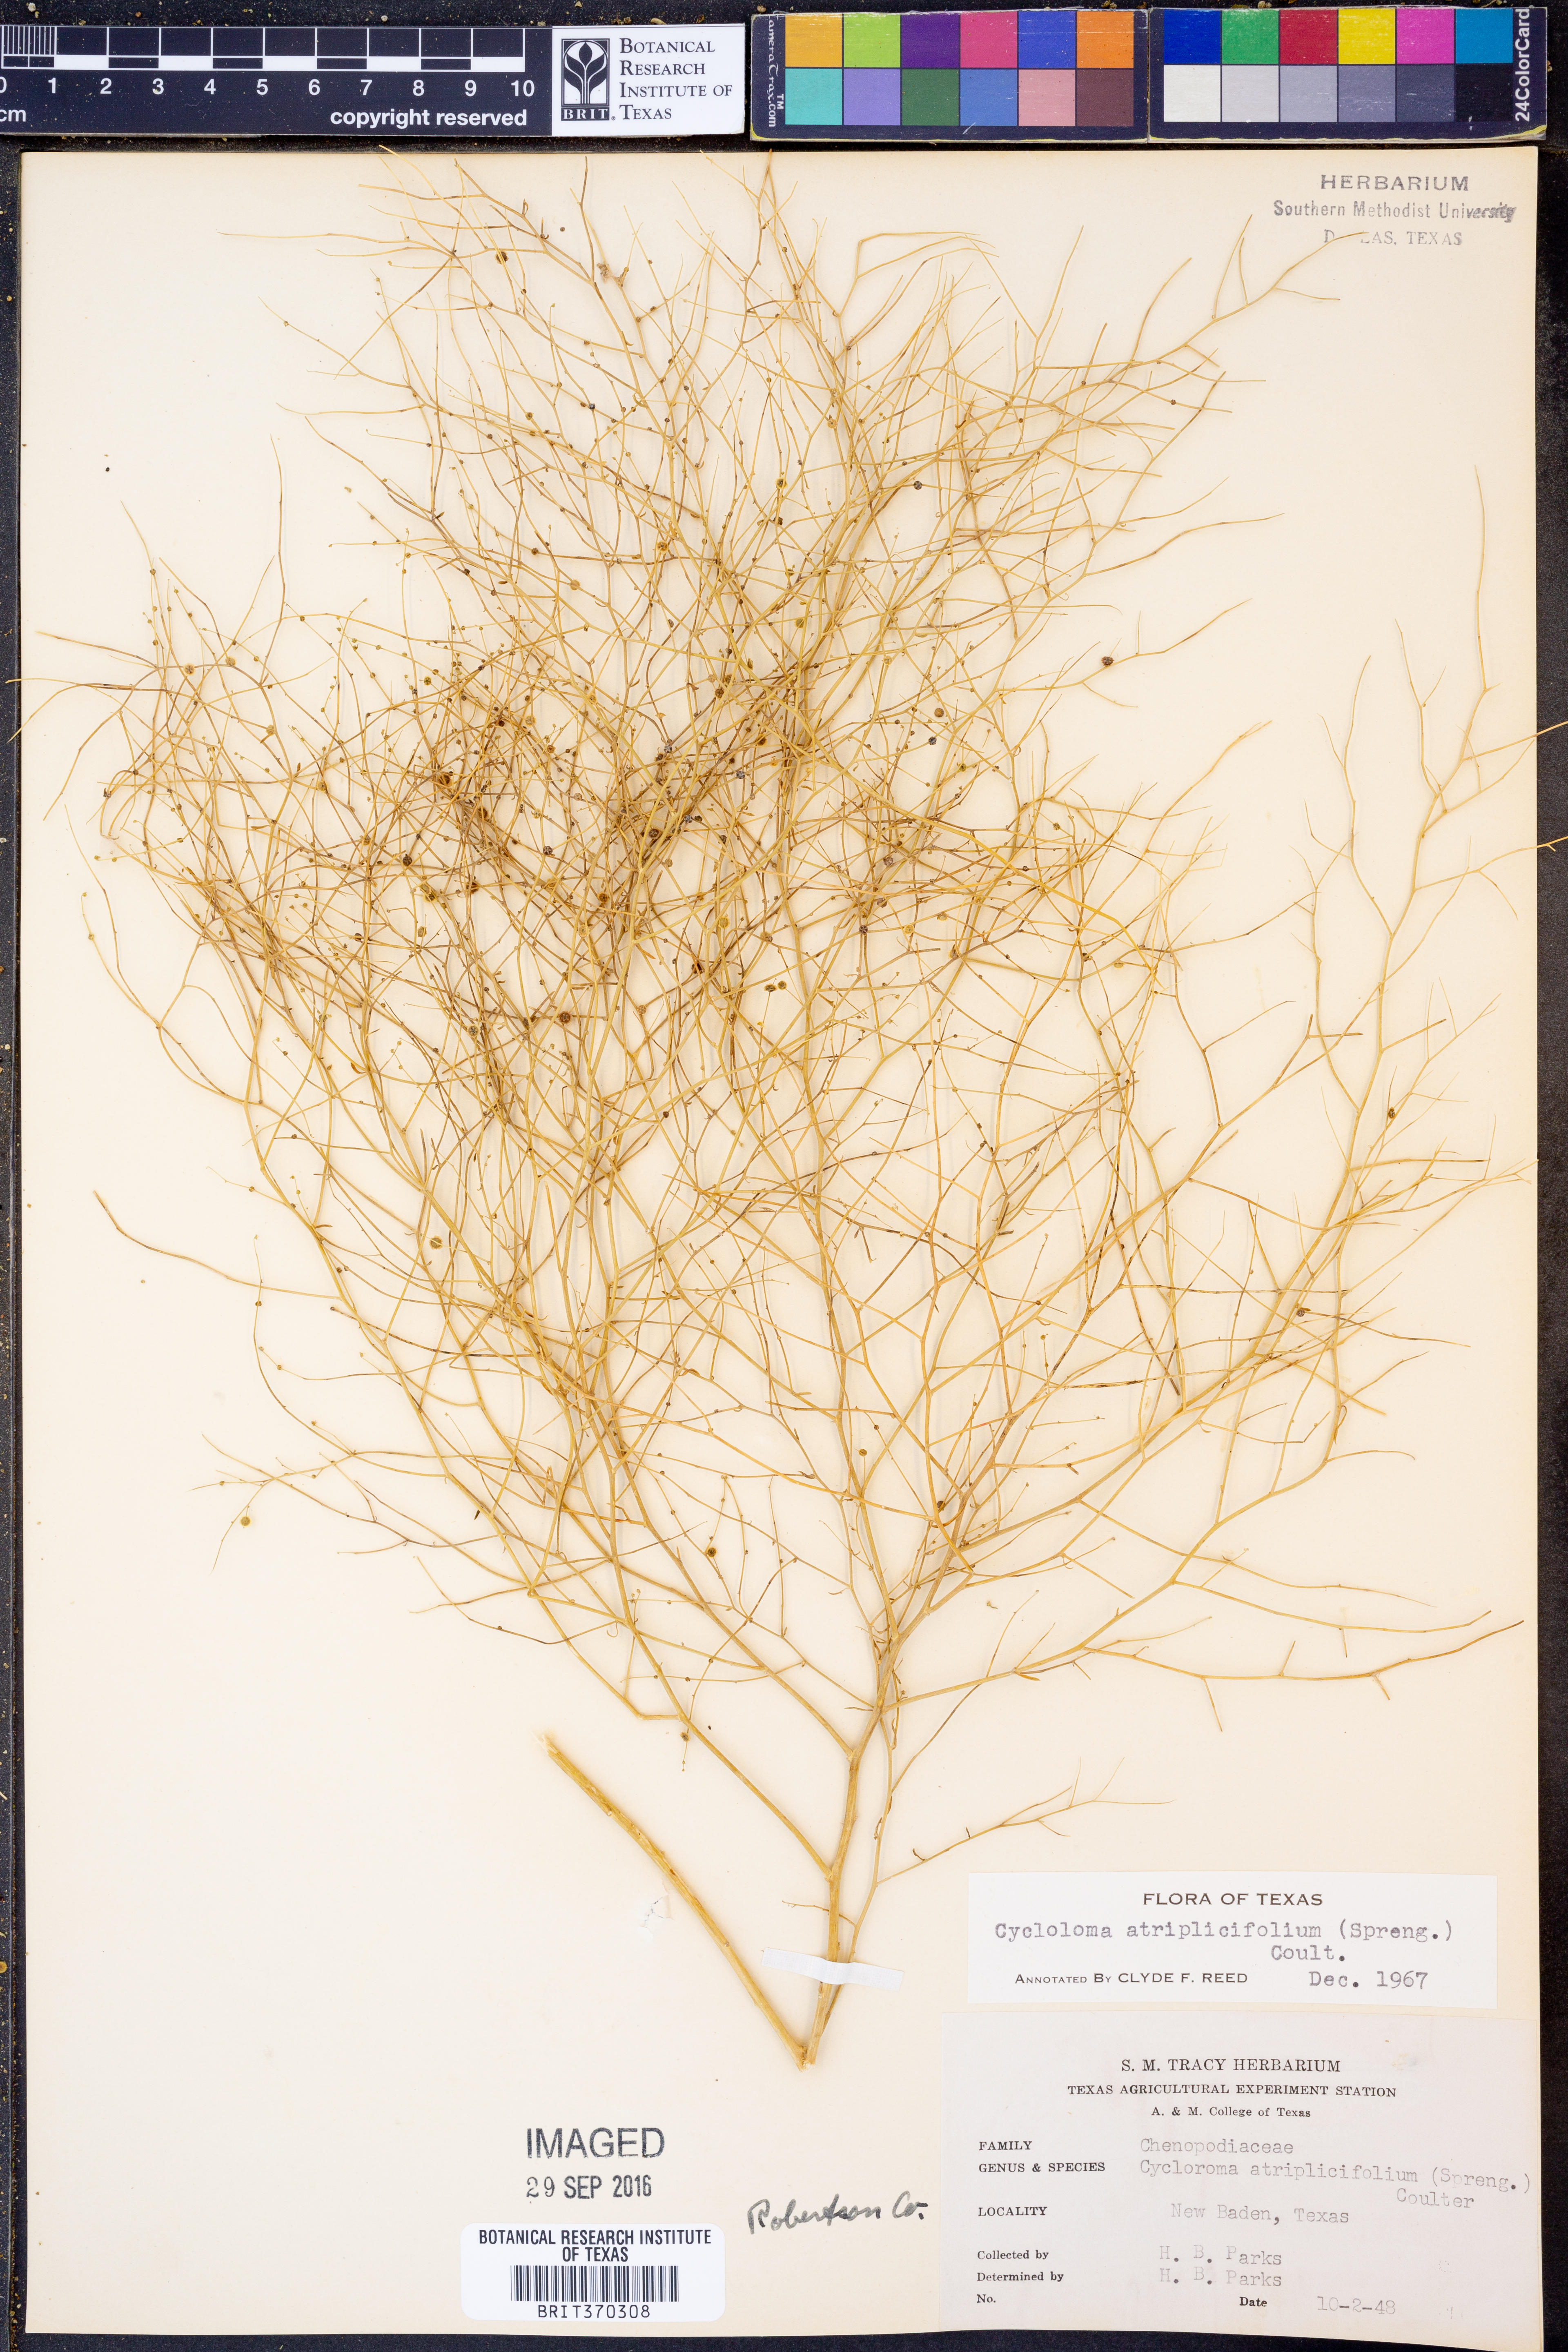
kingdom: Plantae
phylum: Tracheophyta
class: Magnoliopsida
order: Caryophyllales
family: Amaranthaceae
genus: Dysphania
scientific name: Dysphania atriplicifolia
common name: Plains tumbleweed
